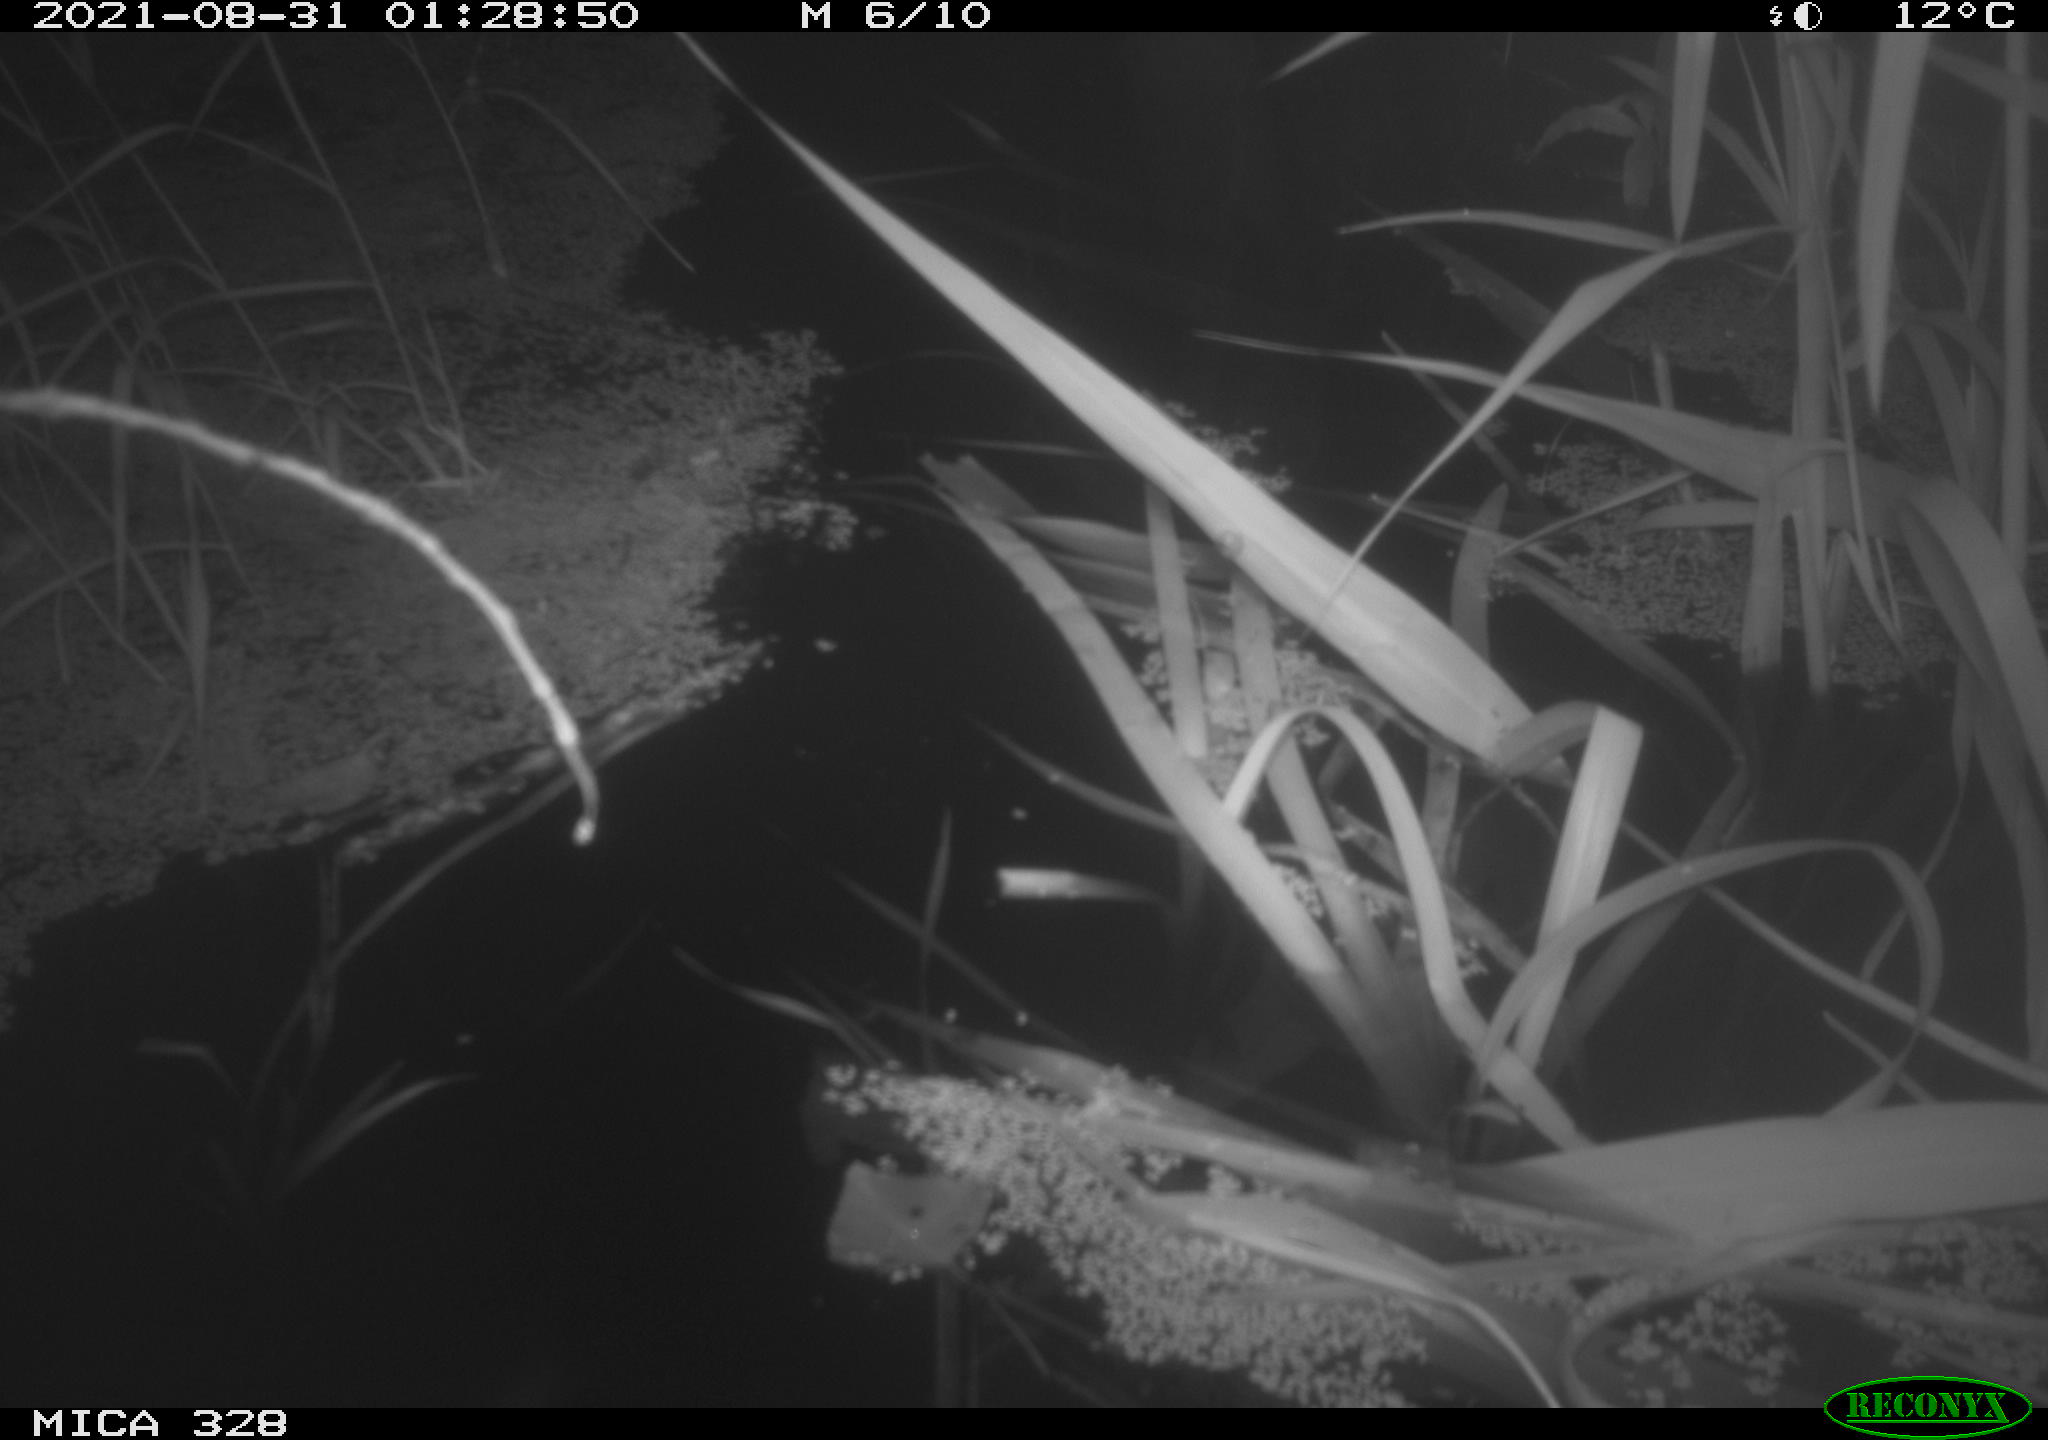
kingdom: Animalia
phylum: Chordata
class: Mammalia
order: Rodentia
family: Cricetidae
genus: Ondatra
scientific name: Ondatra zibethicus
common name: Muskrat
